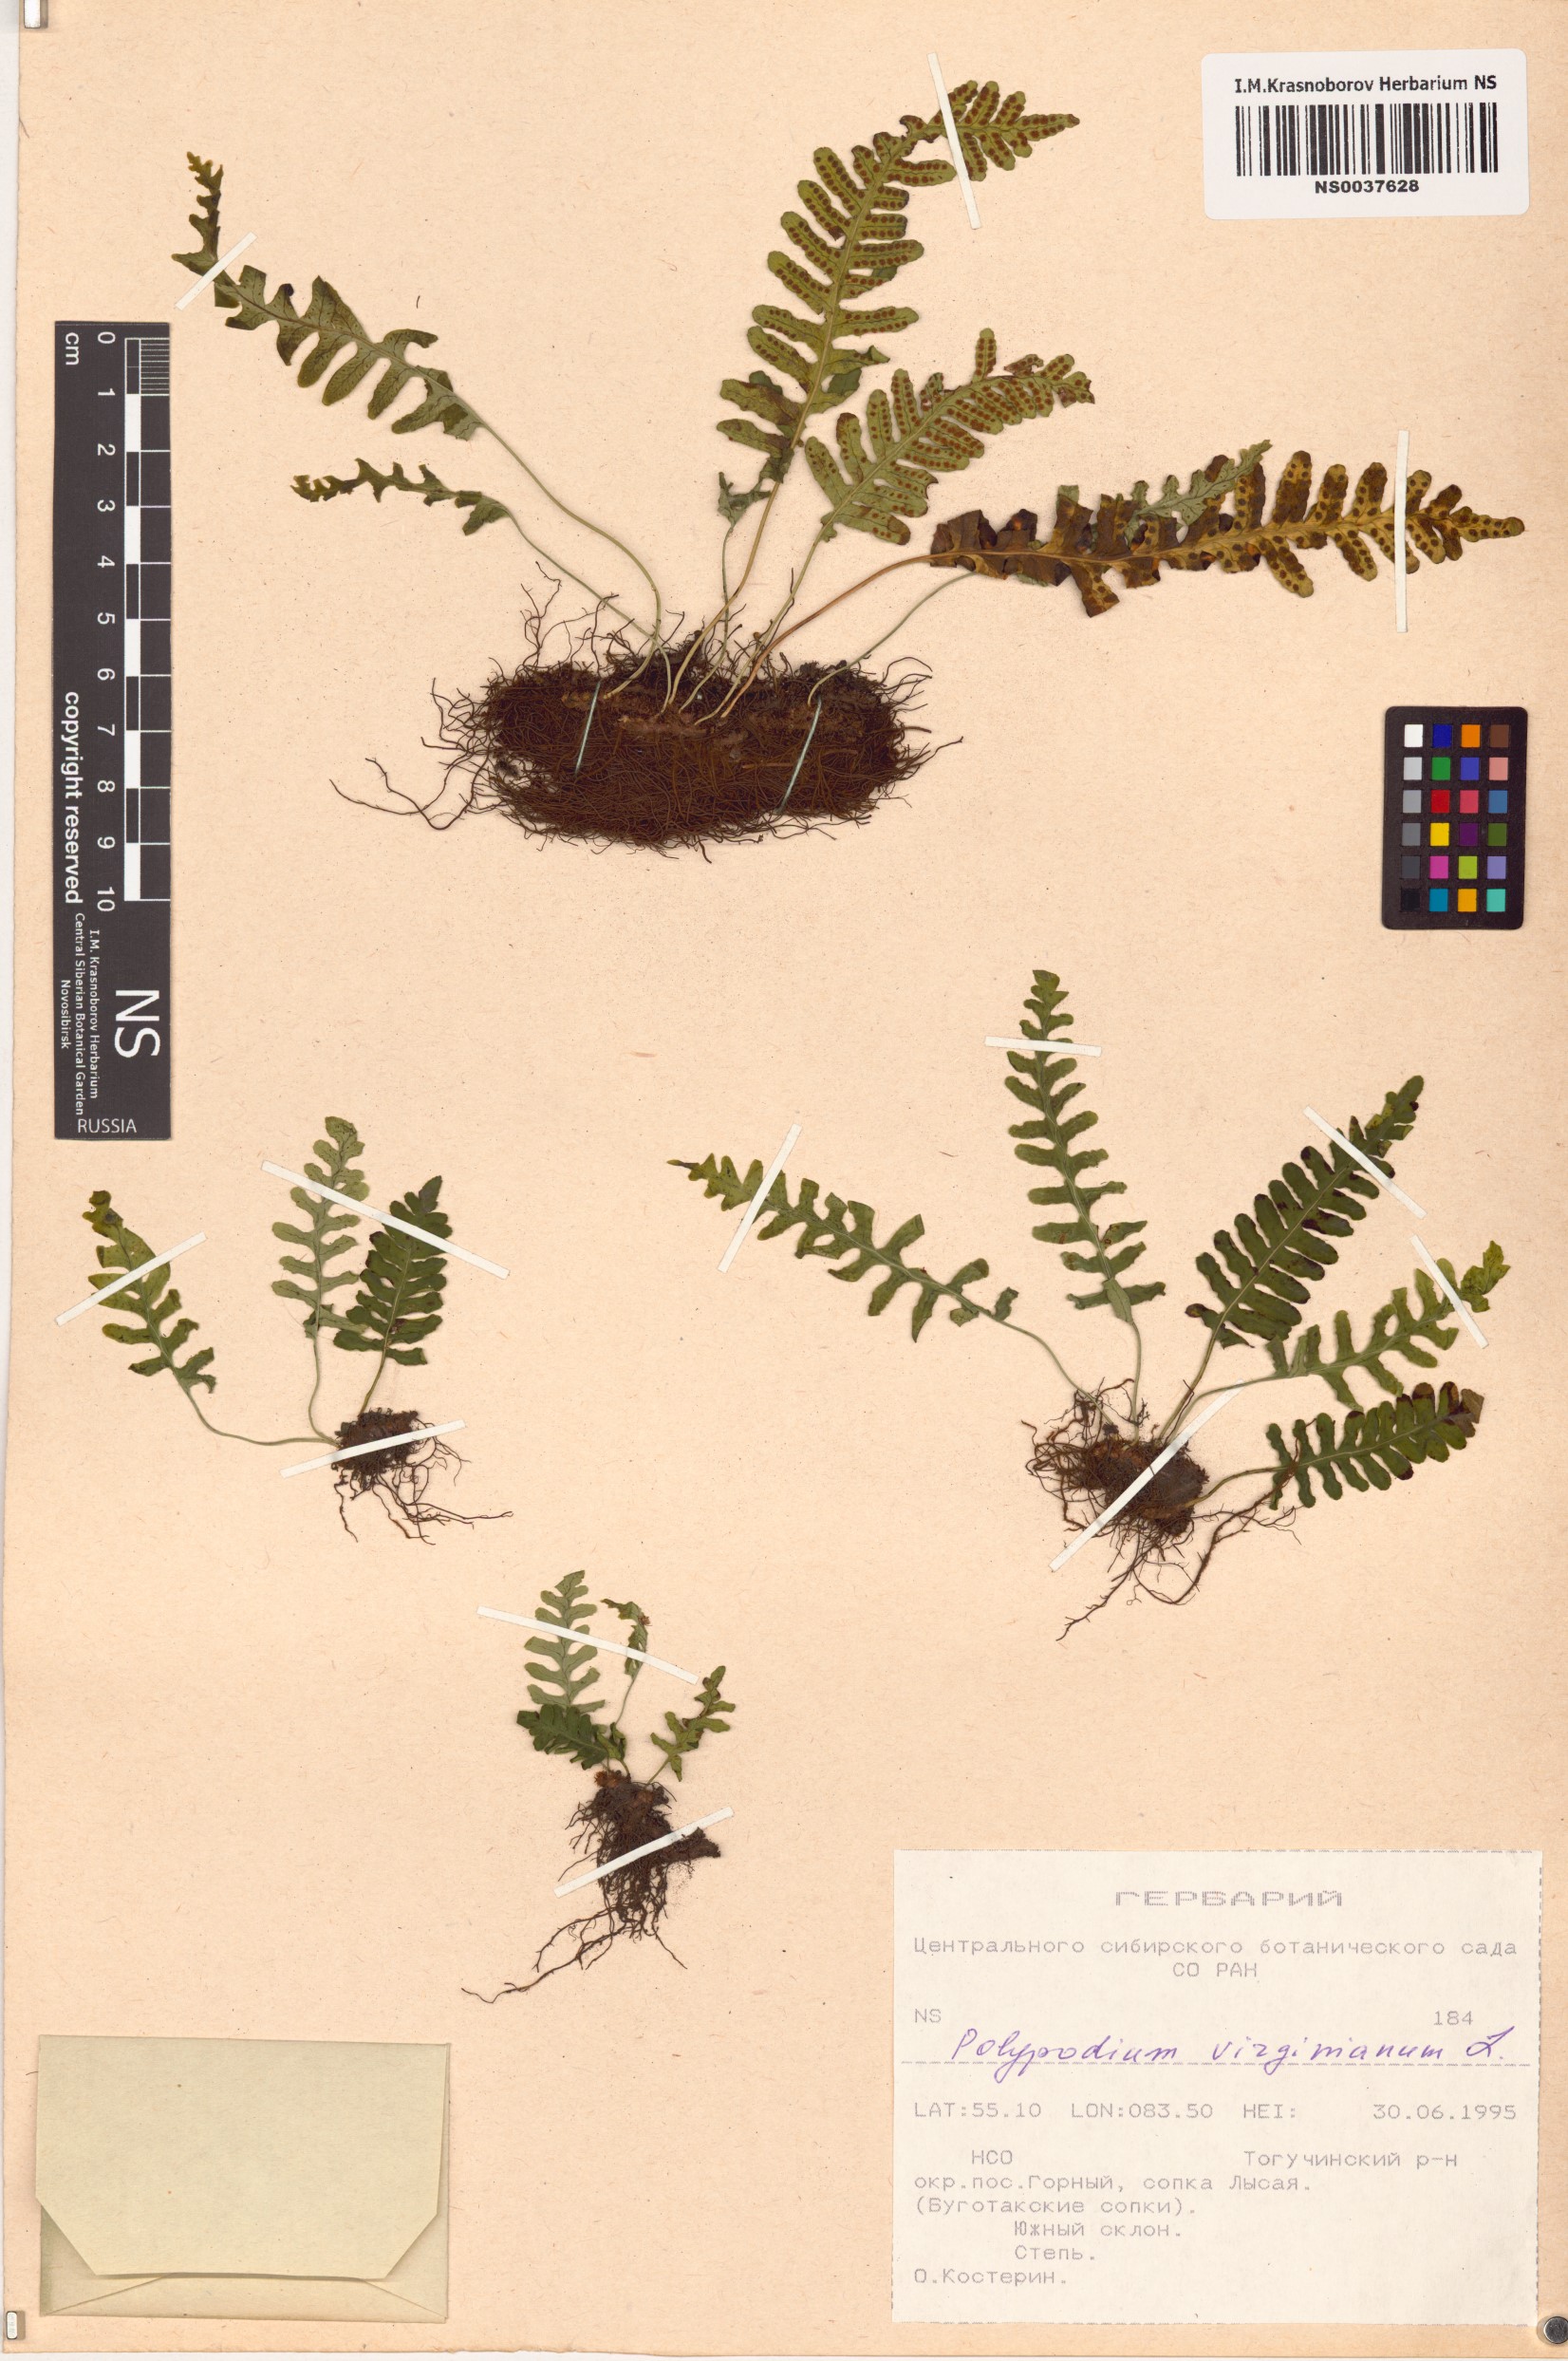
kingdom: Plantae
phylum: Tracheophyta
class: Polypodiopsida
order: Polypodiales
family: Polypodiaceae
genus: Polypodium
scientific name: Polypodium virginianum
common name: American wall fern
